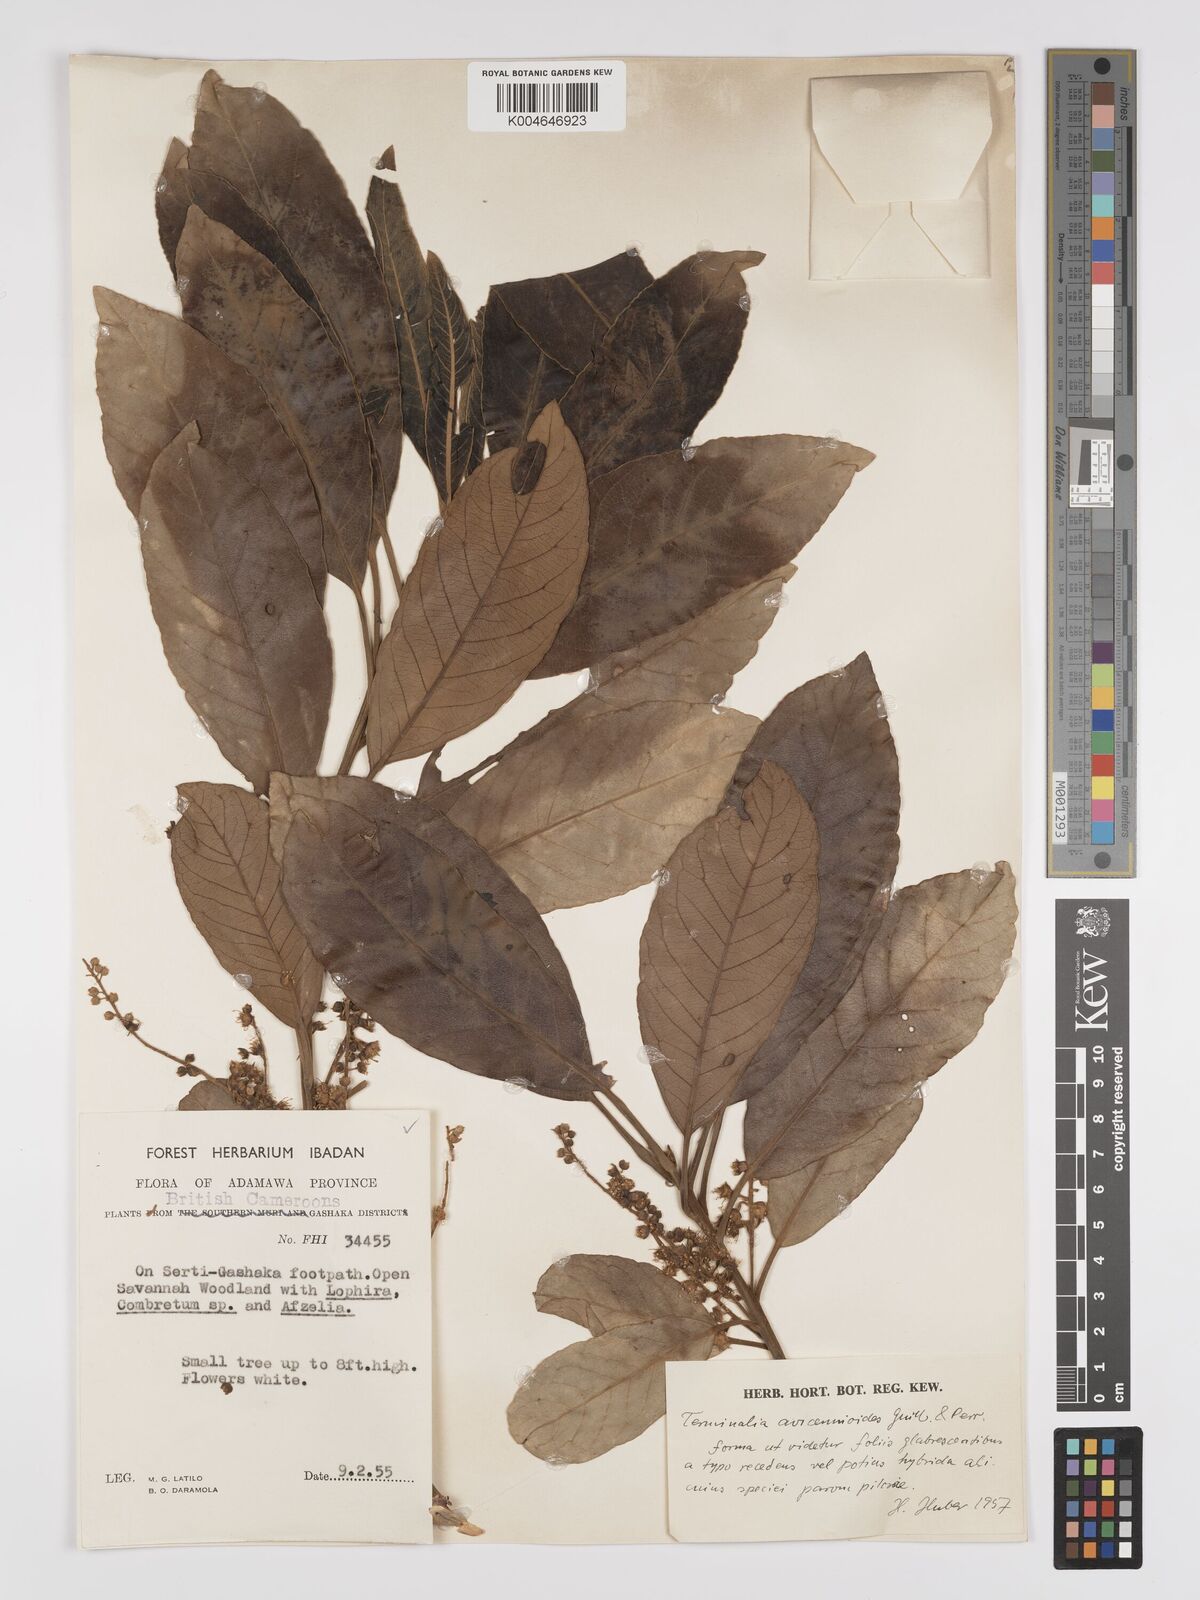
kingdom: Plantae
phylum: Tracheophyta
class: Magnoliopsida
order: Myrtales
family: Combretaceae
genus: Terminalia
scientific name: Terminalia avicennioides
